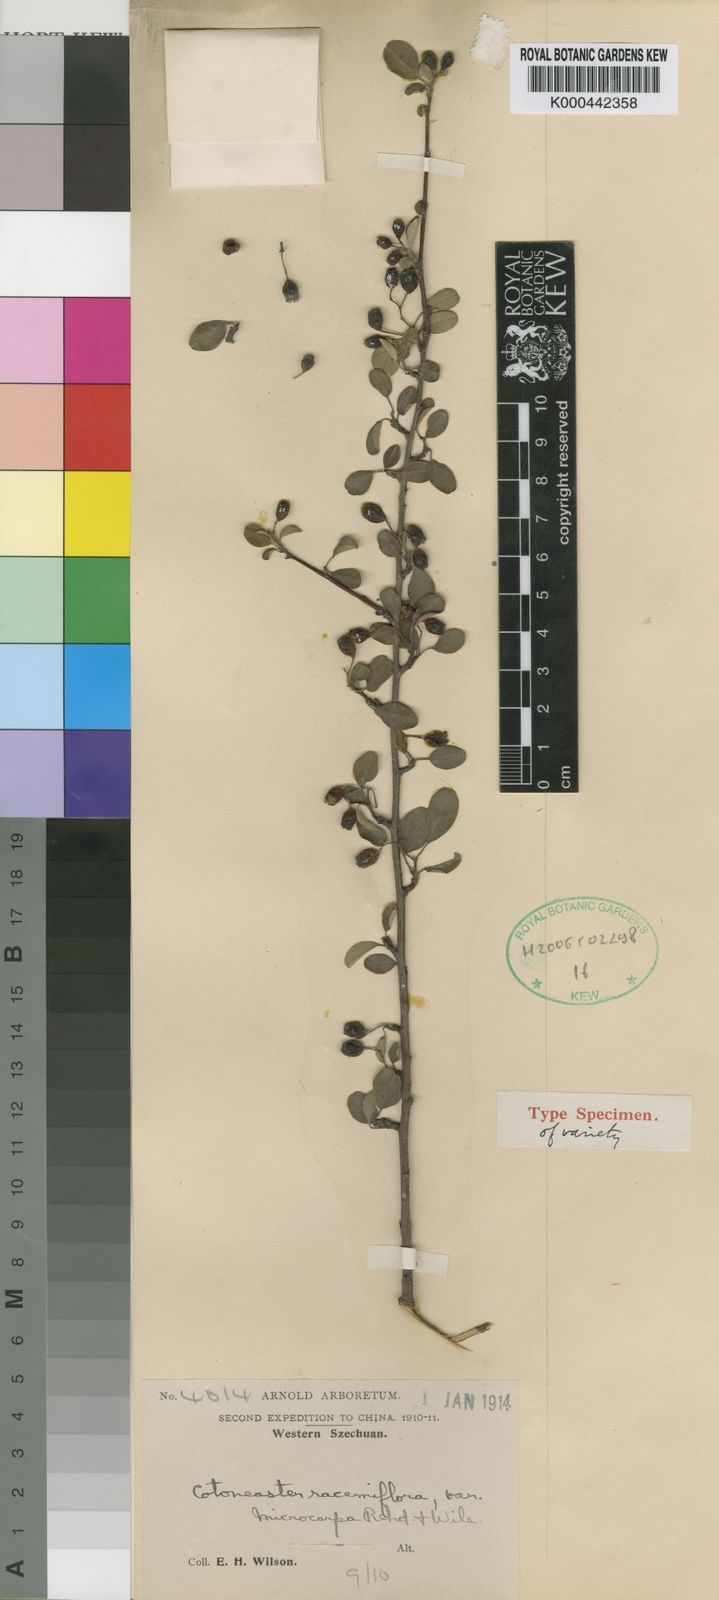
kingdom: Plantae
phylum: Tracheophyta
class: Magnoliopsida
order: Rosales
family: Rosaceae
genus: Cotoneaster
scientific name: Cotoneaster
